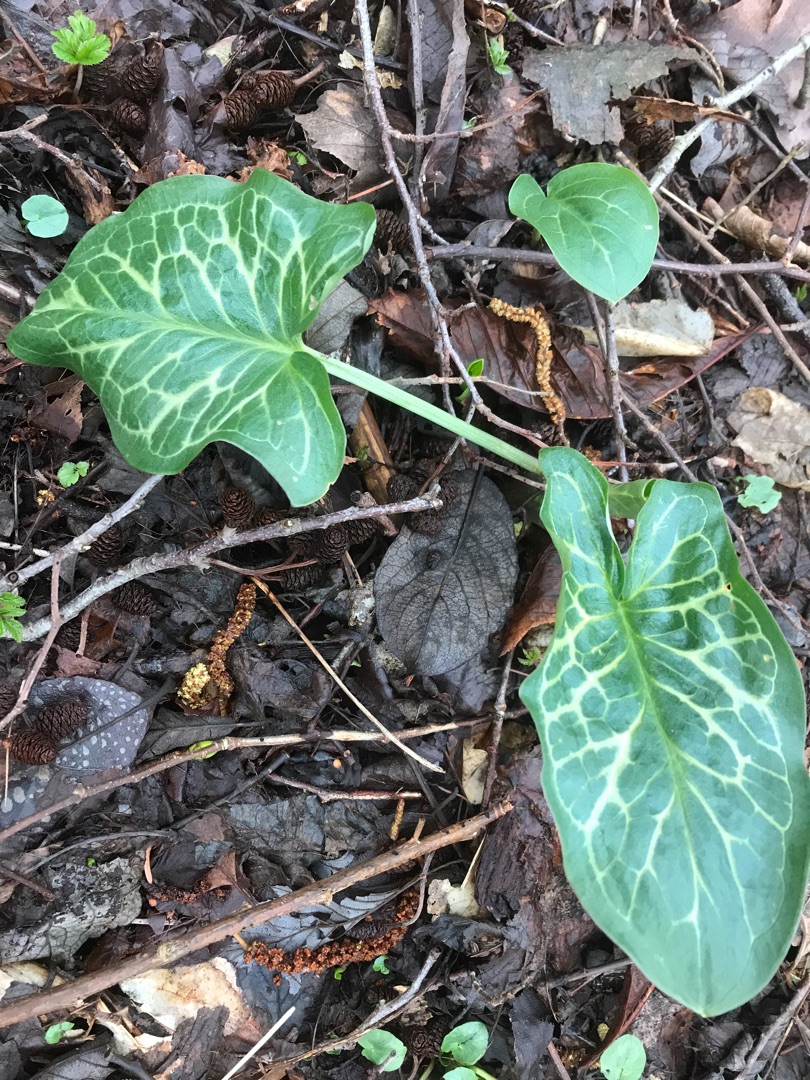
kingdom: Plantae
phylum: Tracheophyta
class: Liliopsida
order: Alismatales
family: Araceae
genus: Arum
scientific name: Arum italicum
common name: Italiensk arum
